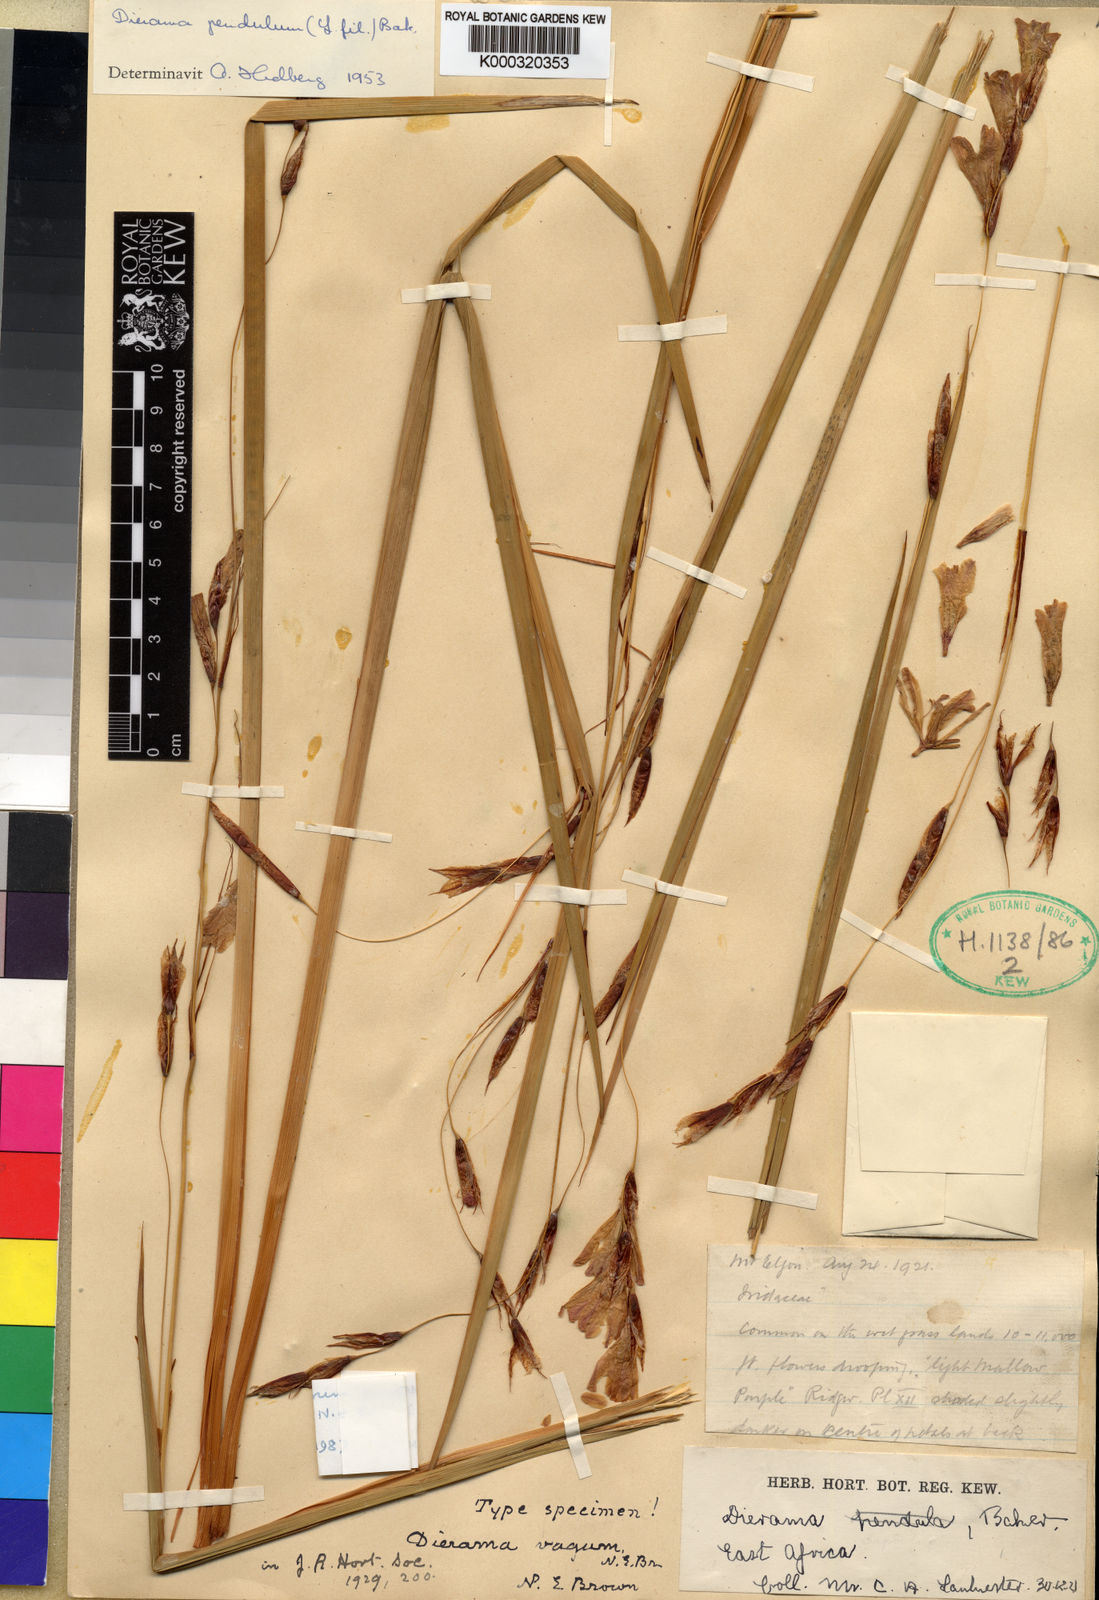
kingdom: Plantae
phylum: Tracheophyta
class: Liliopsida
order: Asparagales
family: Iridaceae
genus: Dierama
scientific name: Dierama cupuliflorum
